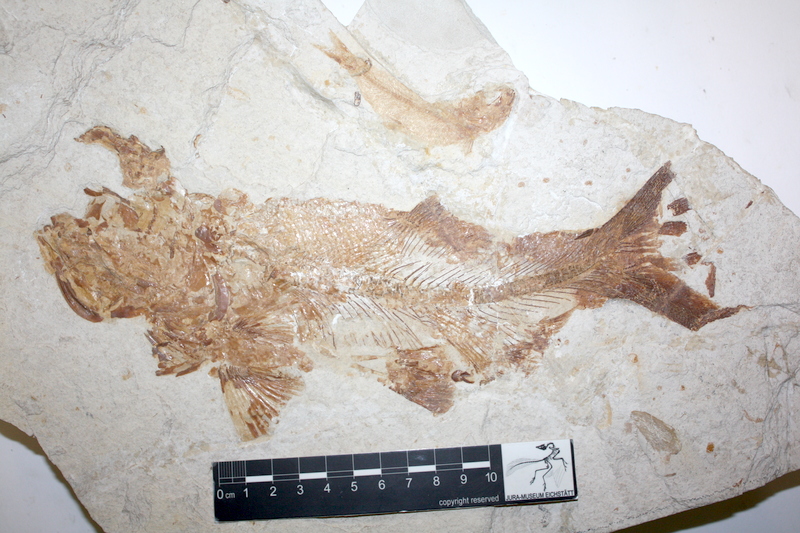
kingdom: Animalia
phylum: Chordata
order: Amiiformes
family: Ionoscopidae
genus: Ionoscopus
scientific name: Ionoscopus
